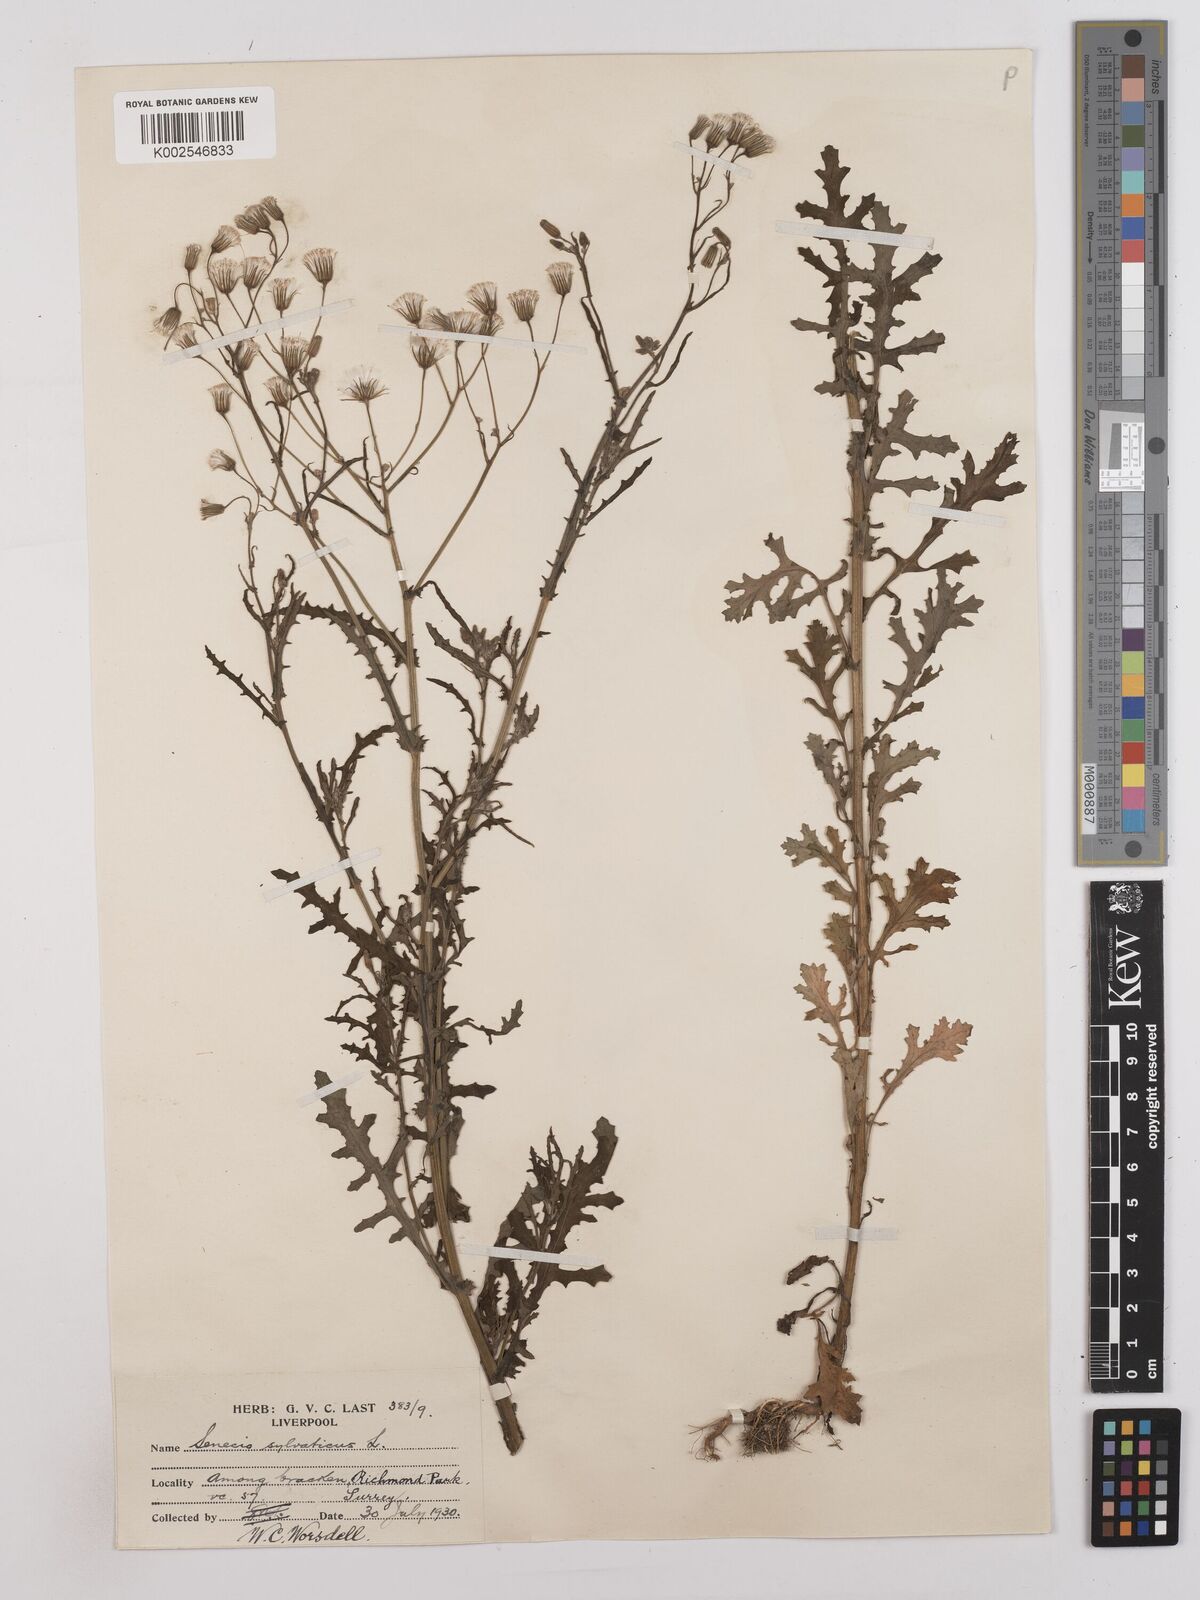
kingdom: Plantae
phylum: Tracheophyta
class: Magnoliopsida
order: Asterales
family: Asteraceae
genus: Senecio
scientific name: Senecio sylvaticus
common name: Woodland ragwort
